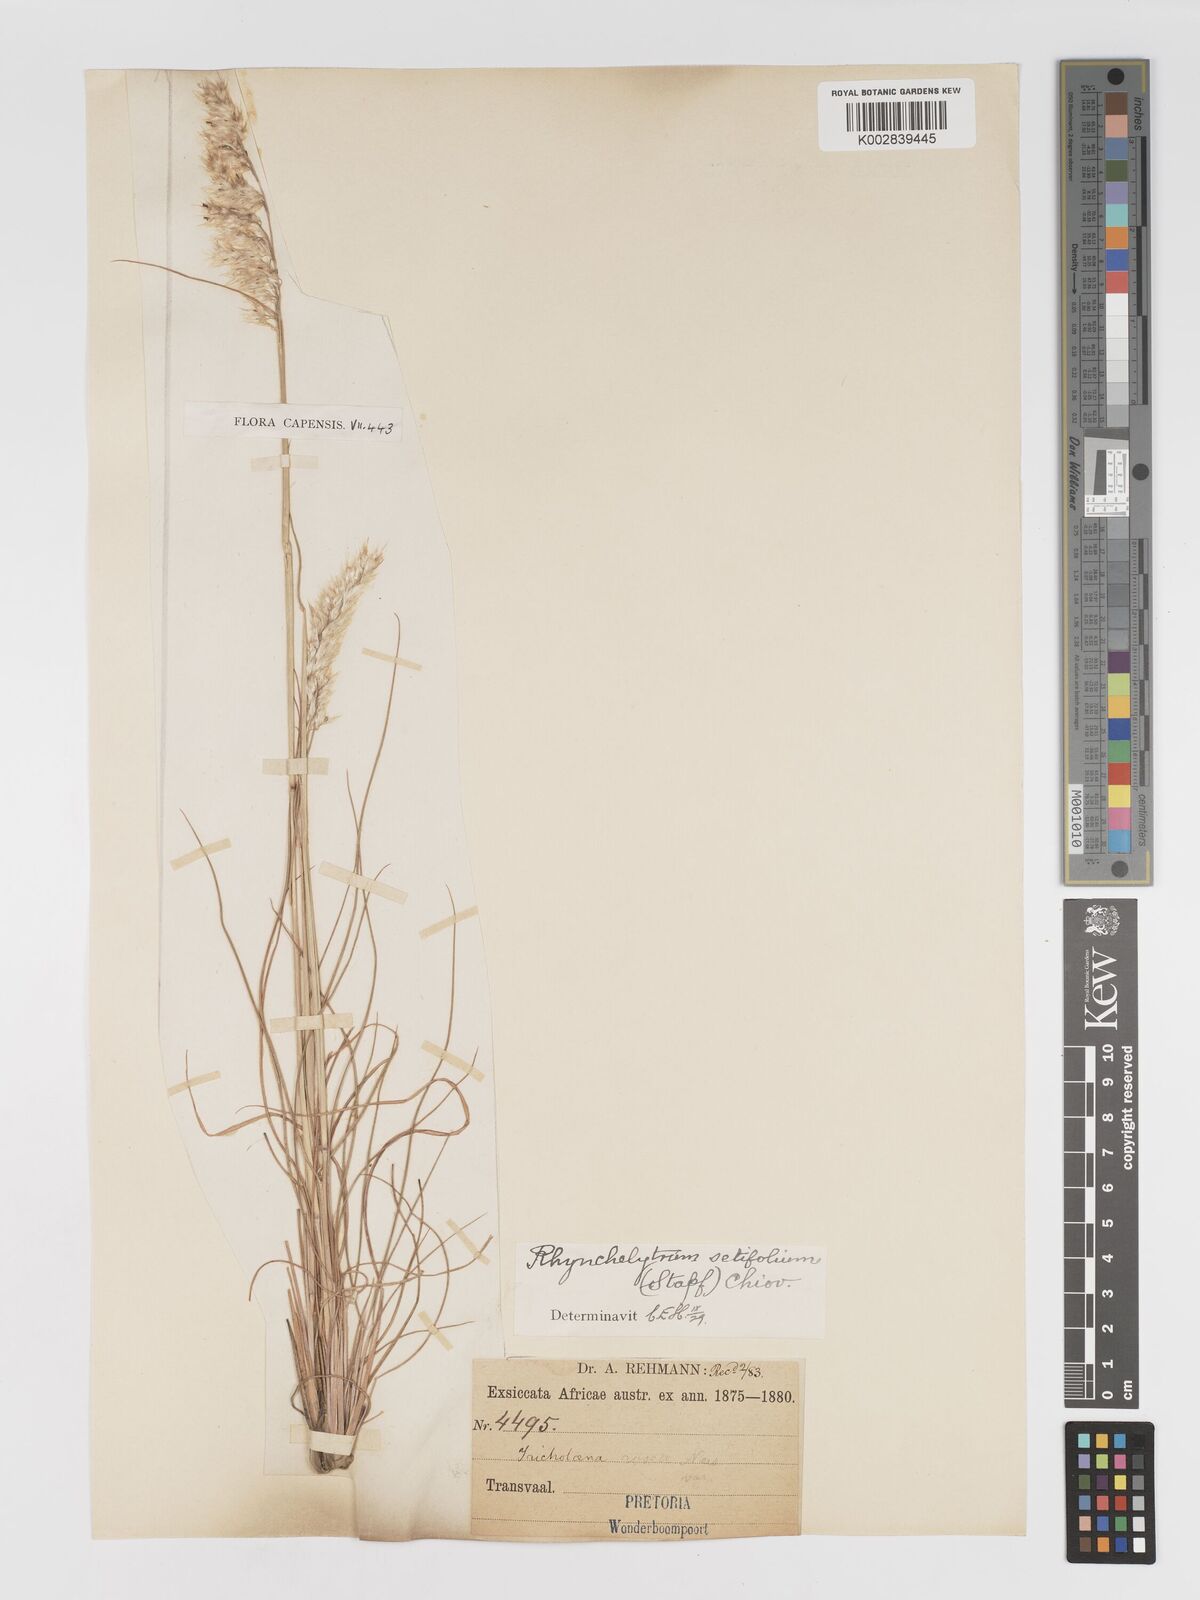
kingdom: Plantae
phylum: Tracheophyta
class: Liliopsida
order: Poales
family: Poaceae
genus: Melinis
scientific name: Melinis nerviglumis
